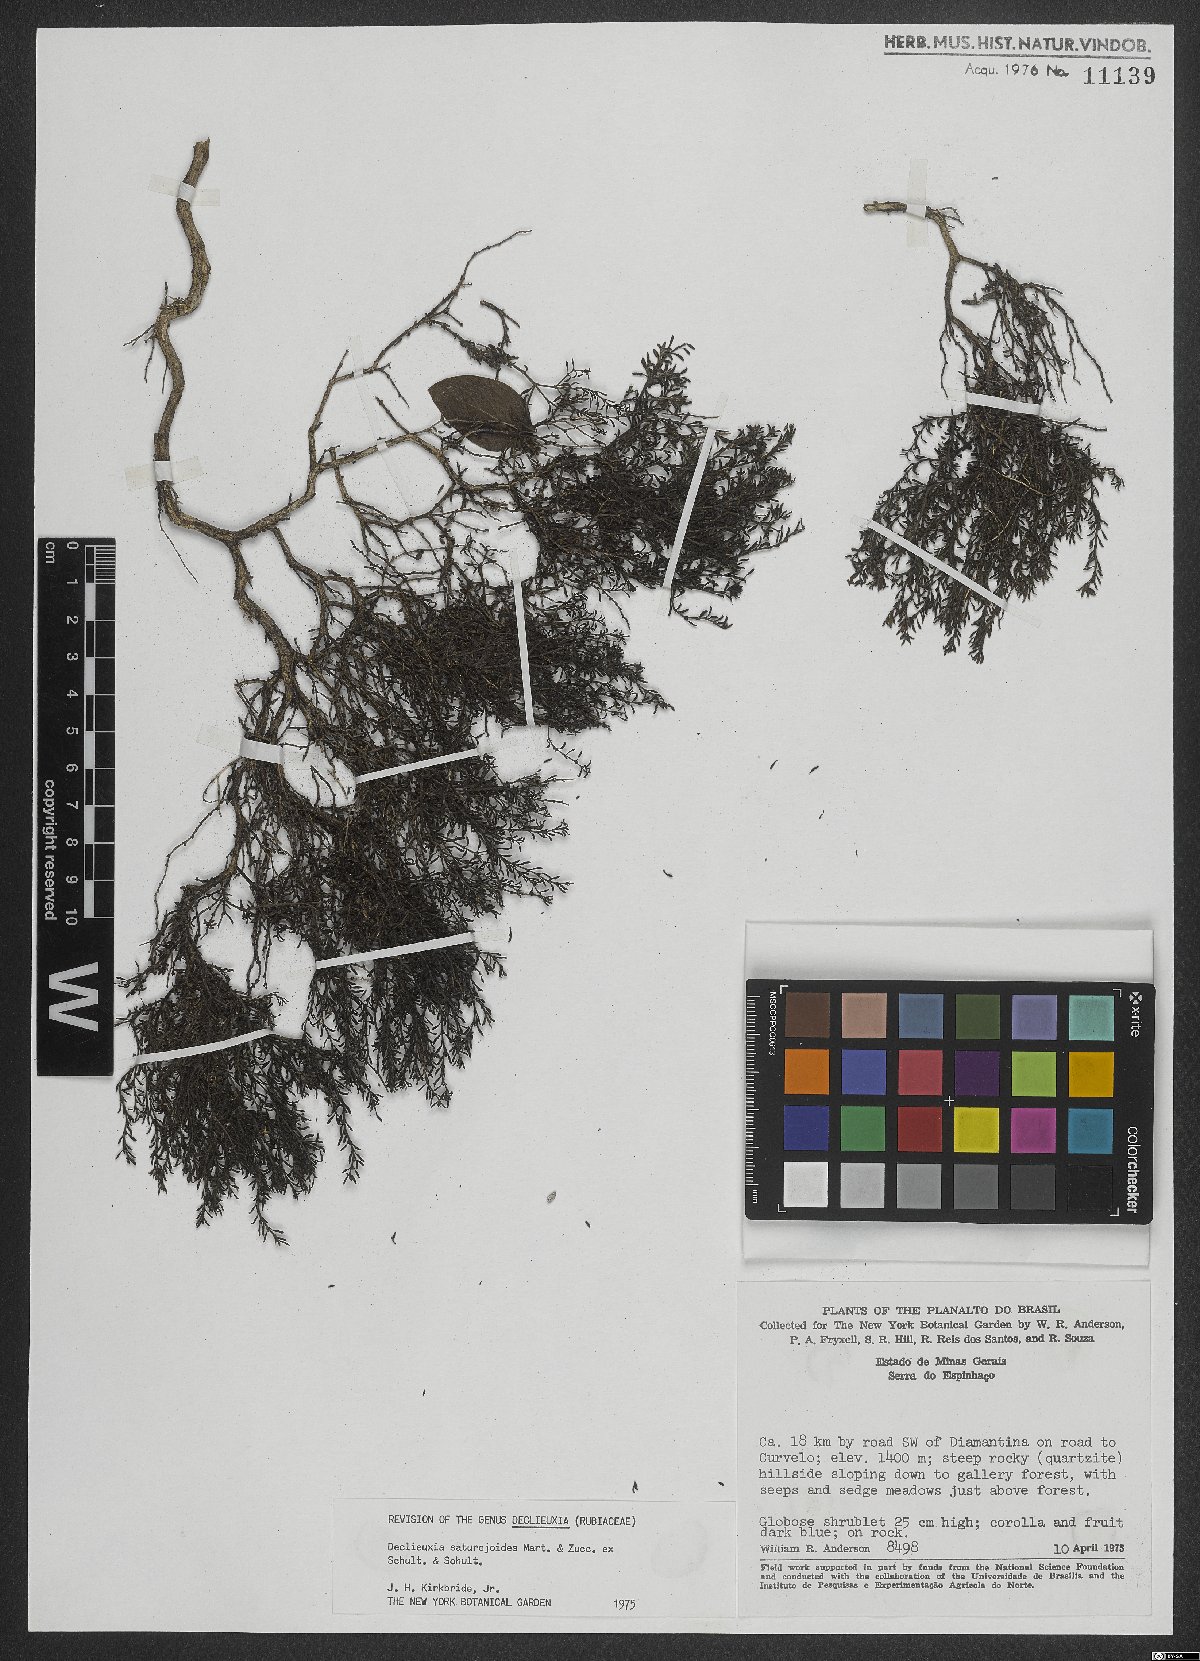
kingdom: Plantae
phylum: Tracheophyta
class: Magnoliopsida
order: Gentianales
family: Rubiaceae
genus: Declieuxia
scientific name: Declieuxia saturejoides
